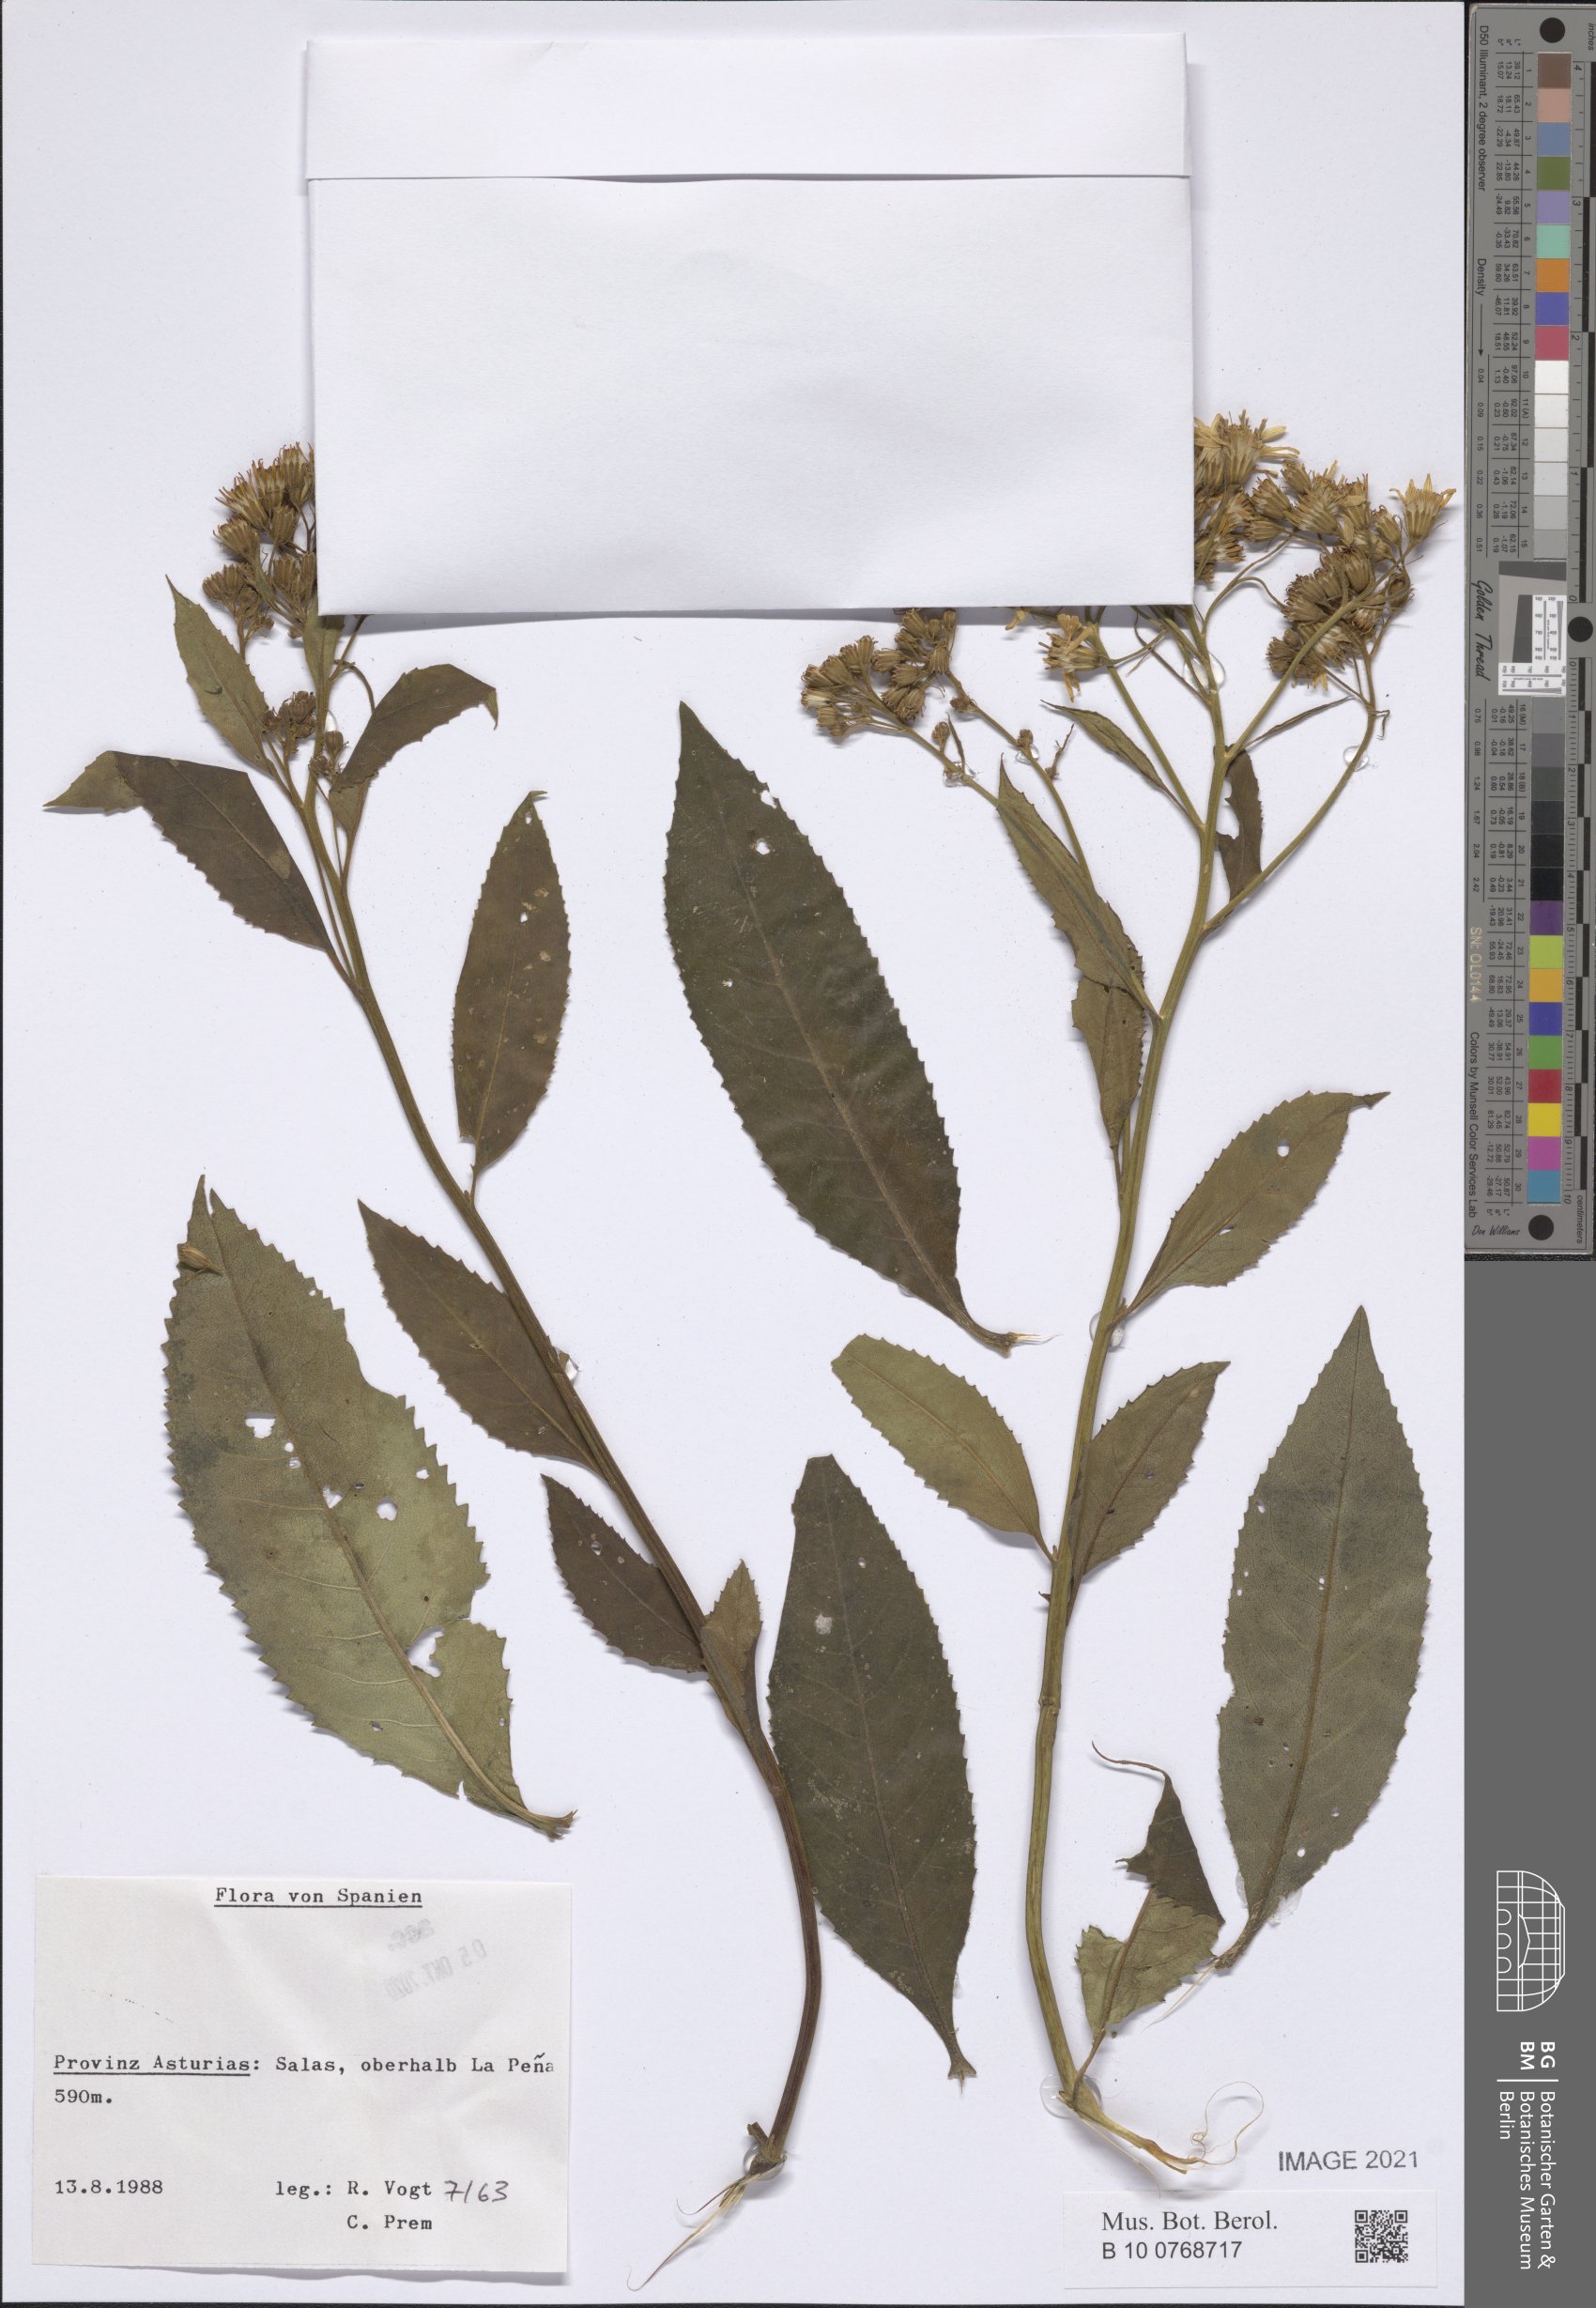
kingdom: Plantae
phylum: Tracheophyta
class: Magnoliopsida
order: Asterales
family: Asteraceae
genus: Senecio
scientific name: Senecio
